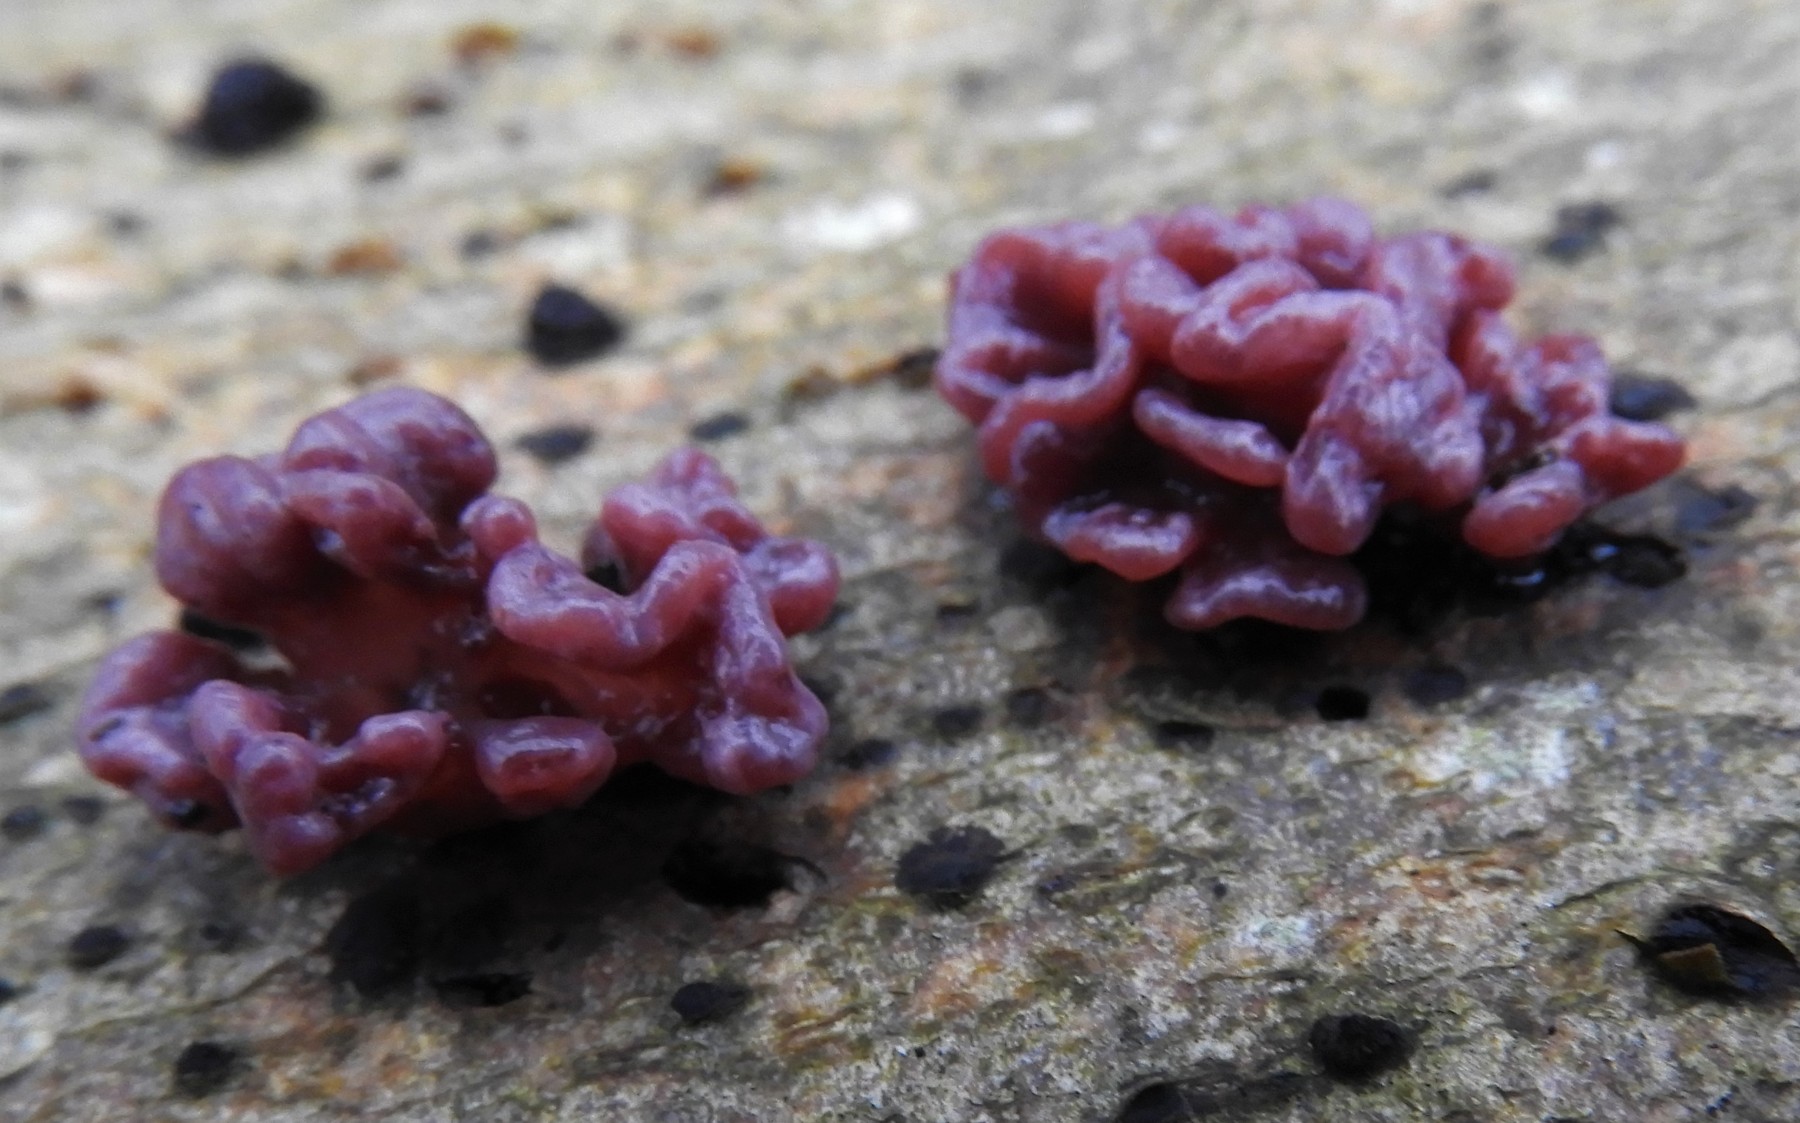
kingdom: Fungi
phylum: Ascomycota
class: Leotiomycetes
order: Helotiales
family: Gelatinodiscaceae
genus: Ascocoryne
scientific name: Ascocoryne sarcoides
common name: rødlilla sejskive
